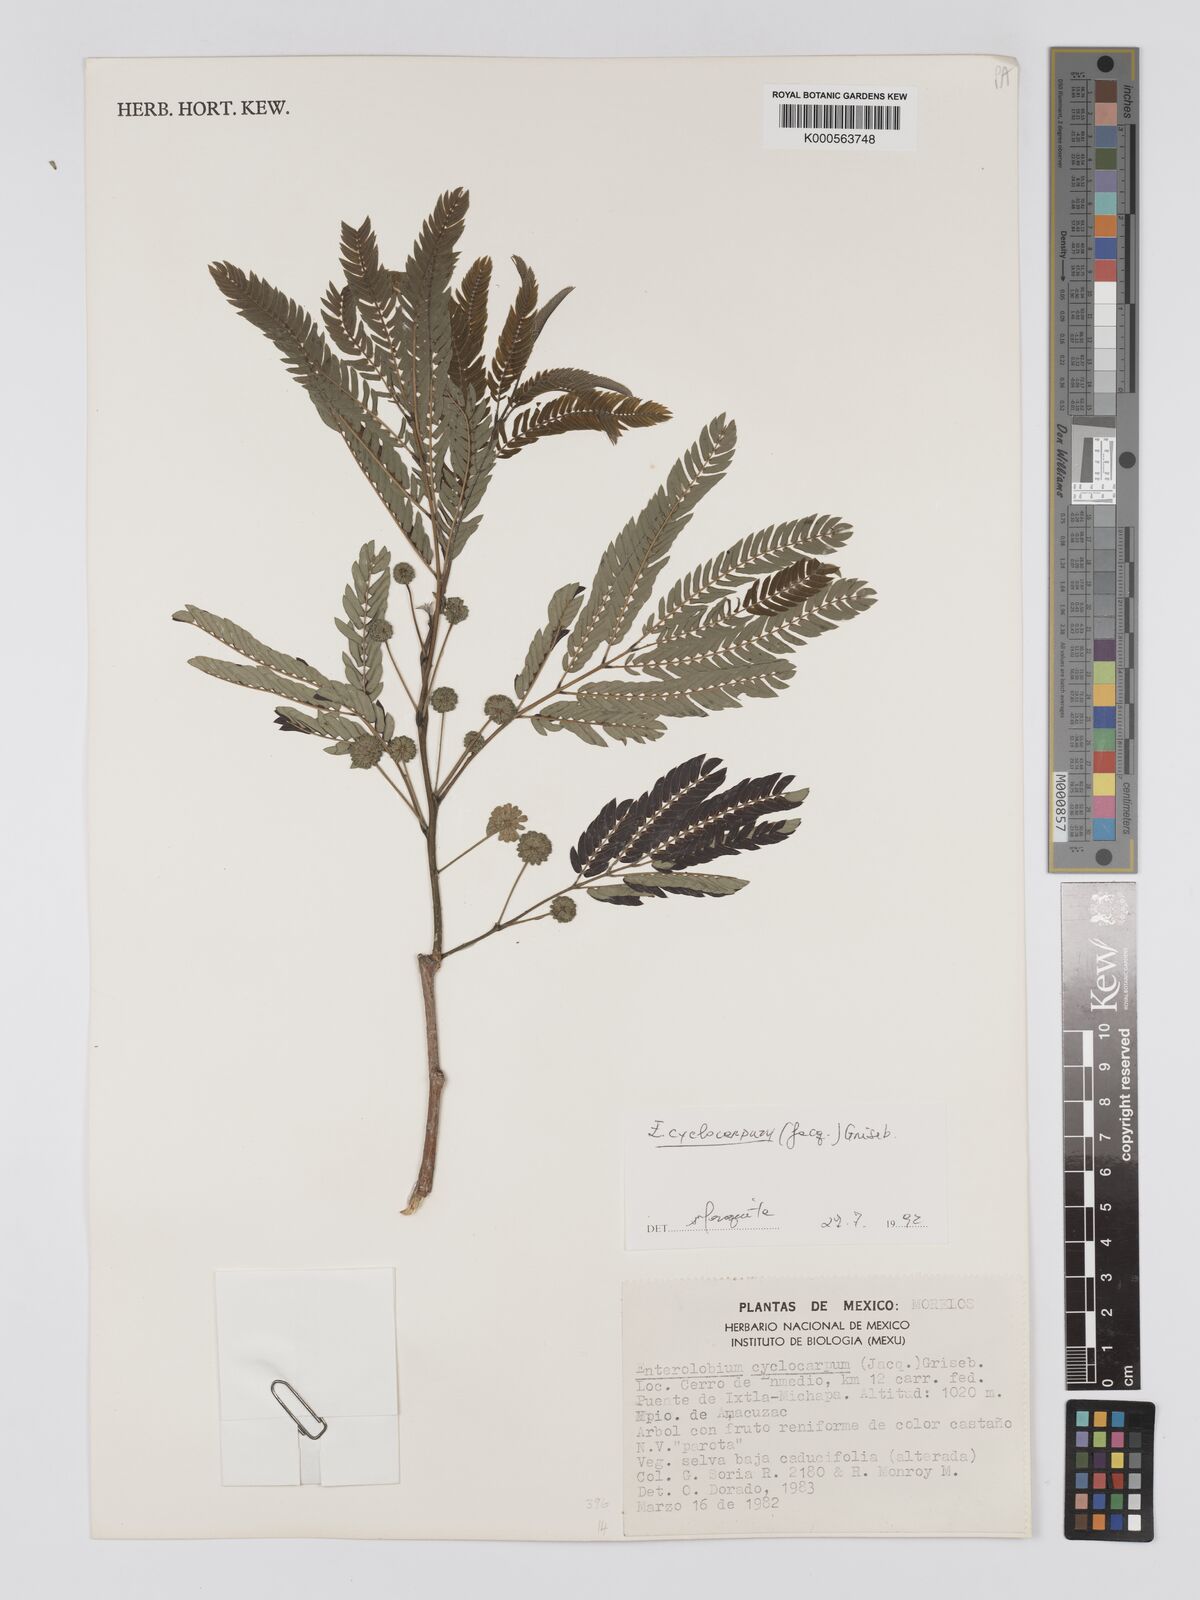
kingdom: Plantae
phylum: Tracheophyta
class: Magnoliopsida
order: Fabales
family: Fabaceae
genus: Enterolobium
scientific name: Enterolobium cyclocarpum
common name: Ear tree
